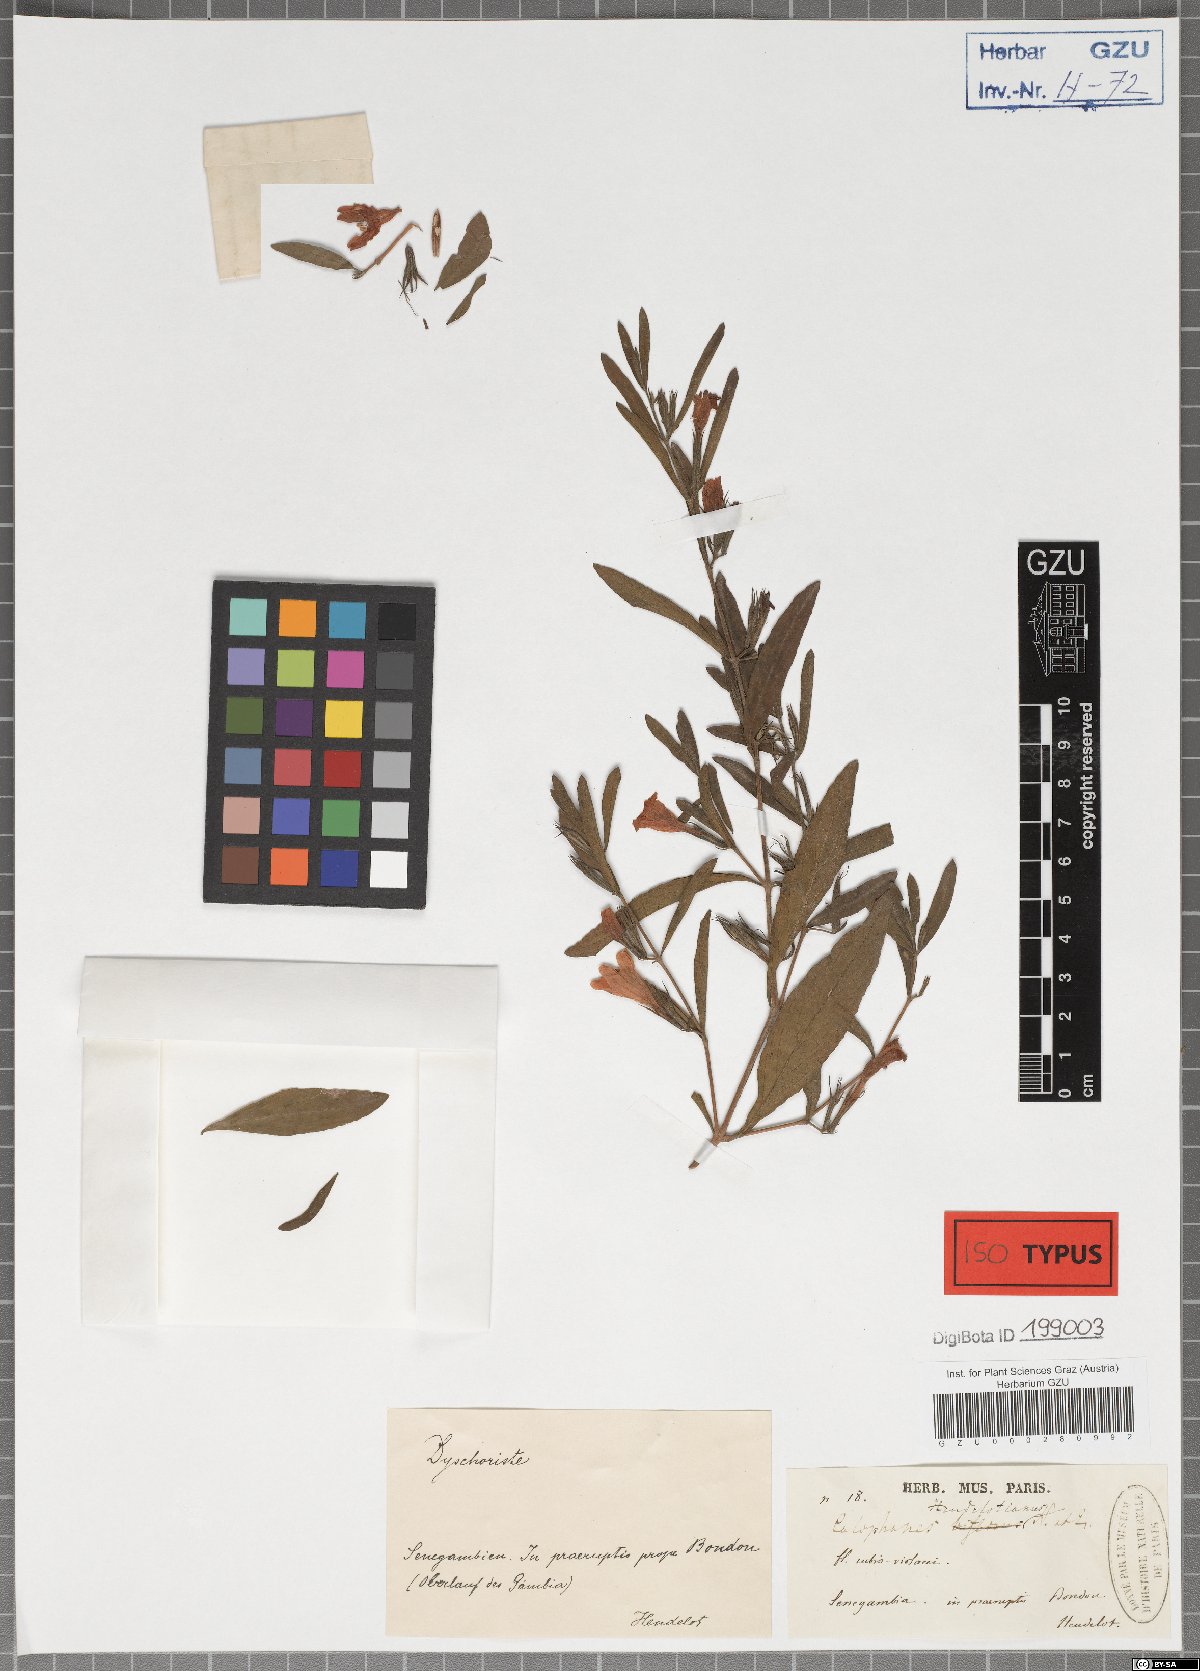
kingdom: Plantae
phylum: Tracheophyta
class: Magnoliopsida
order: Lamiales
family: Acanthaceae
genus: Dyschoriste
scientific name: Dyschoriste heudelotiana
